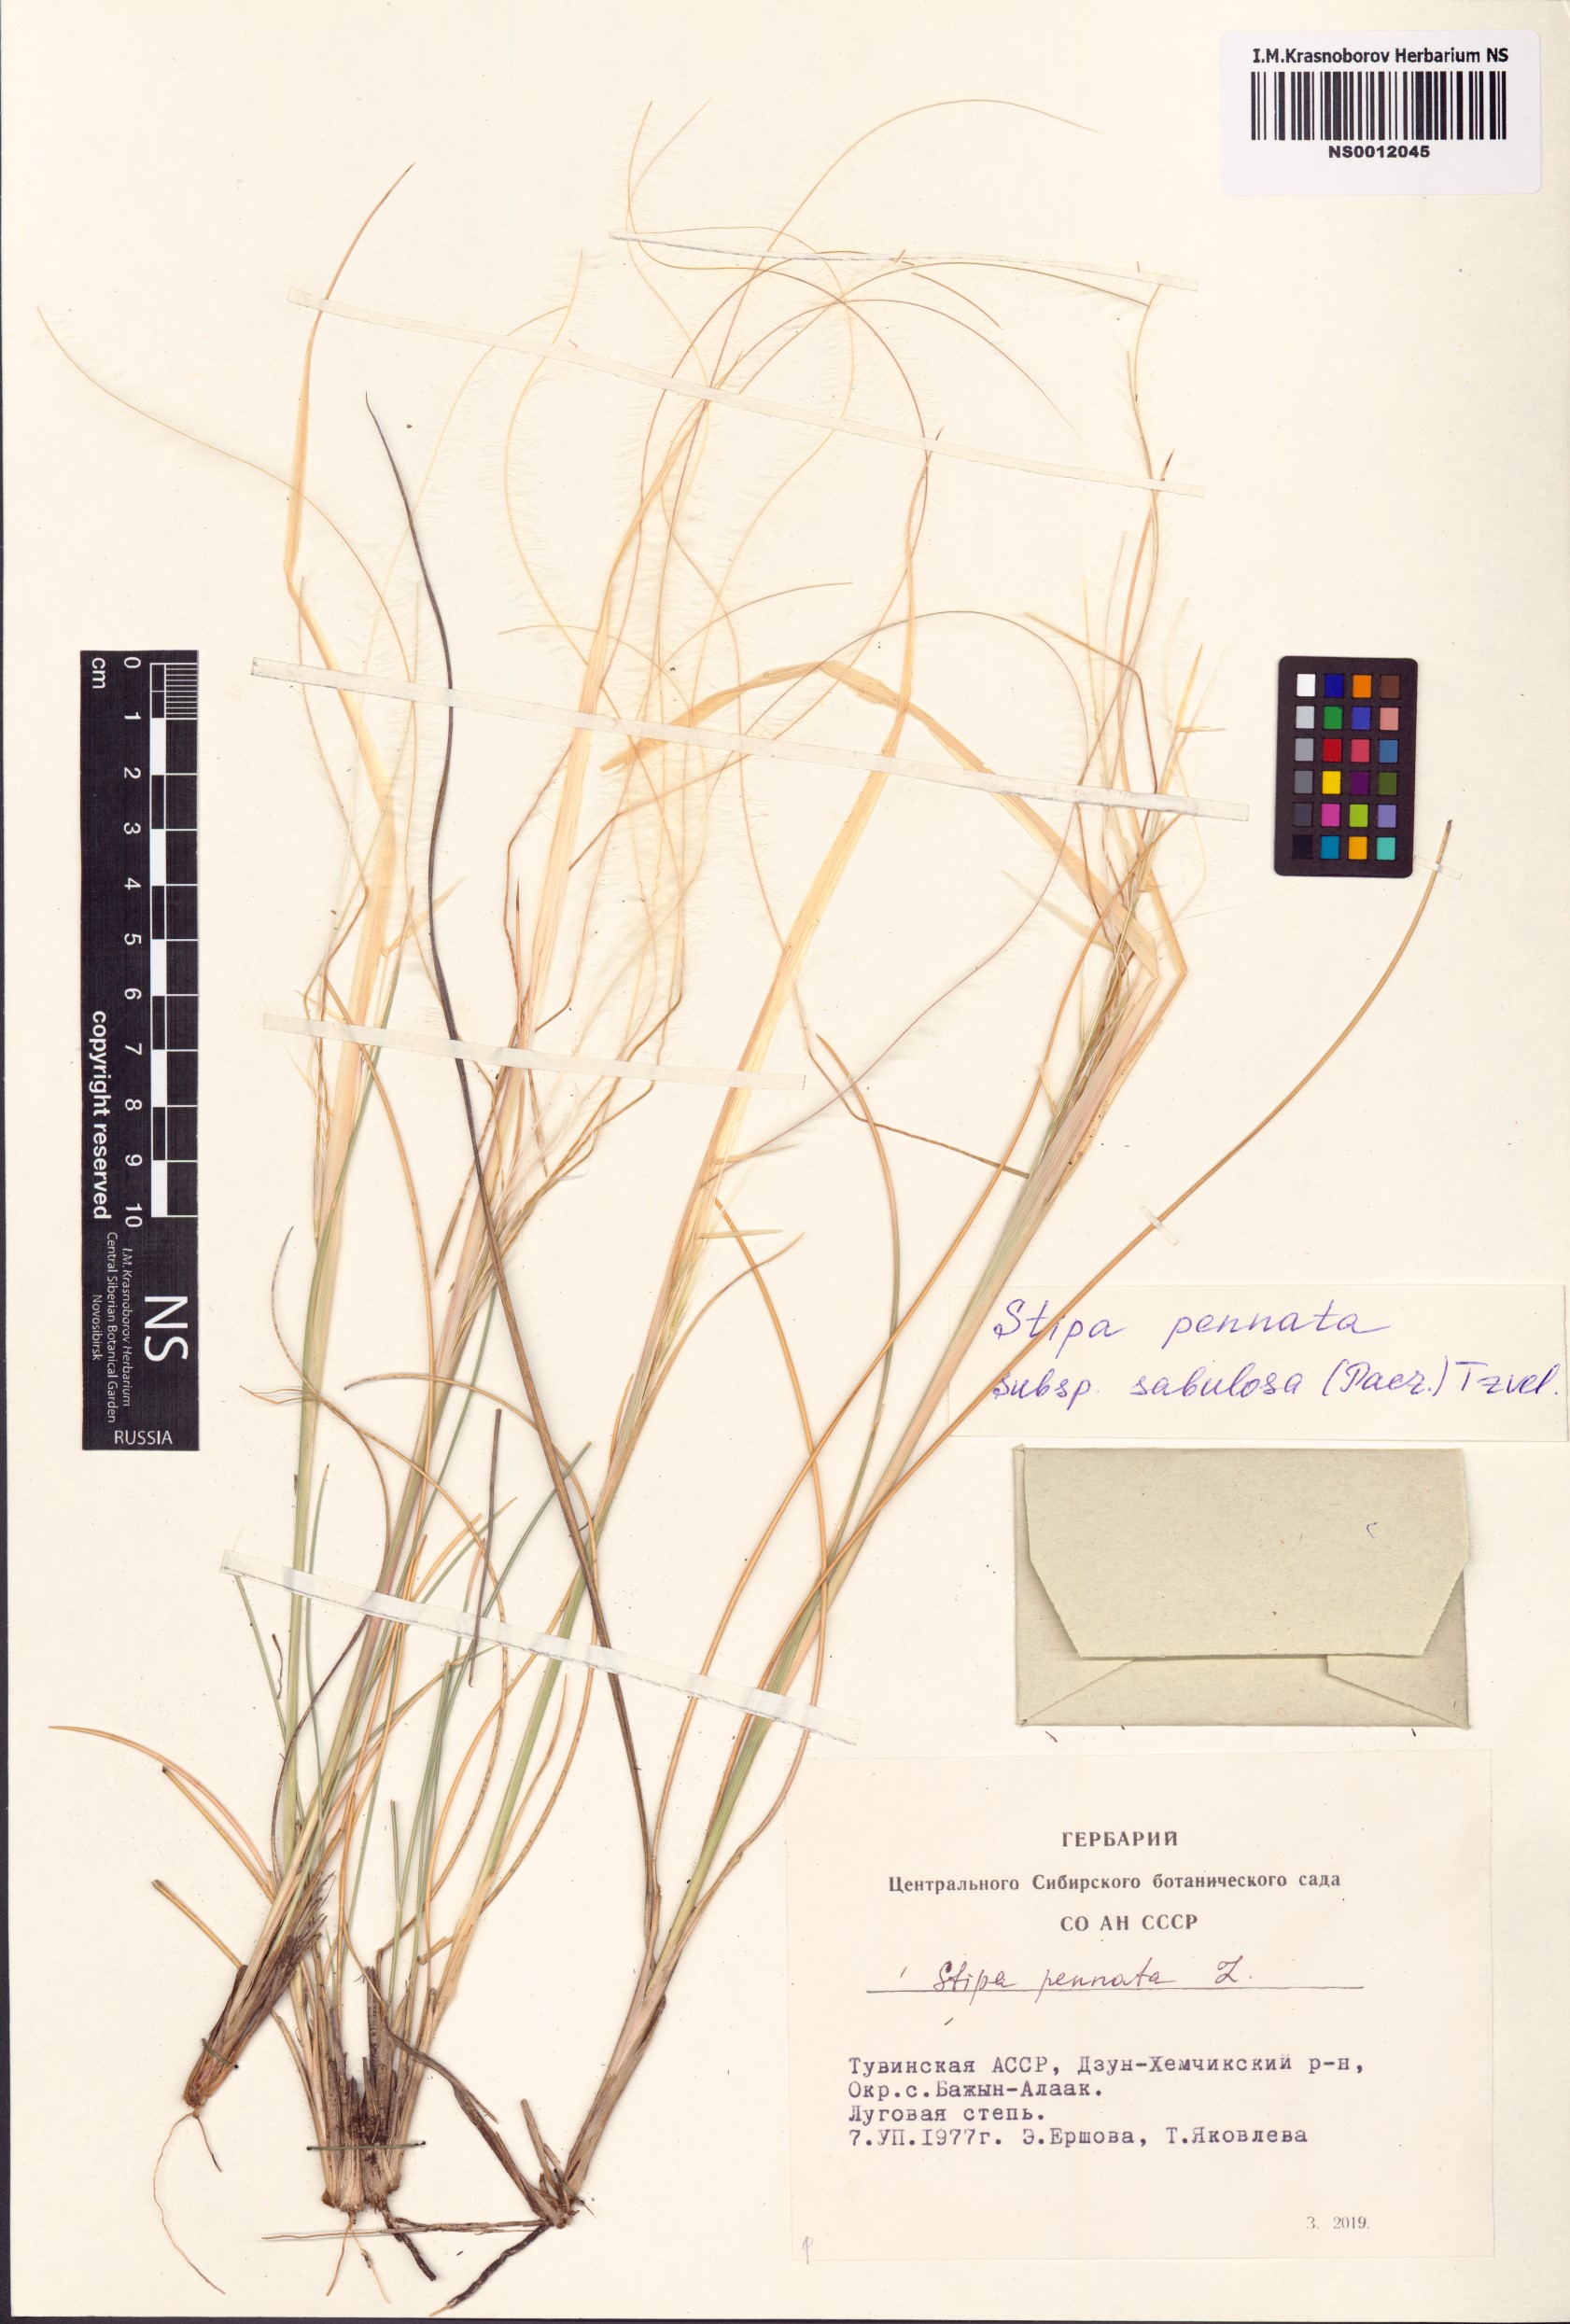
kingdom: Plantae
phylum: Tracheophyta
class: Liliopsida
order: Poales
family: Poaceae
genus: Stipa
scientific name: Stipa borysthenica
